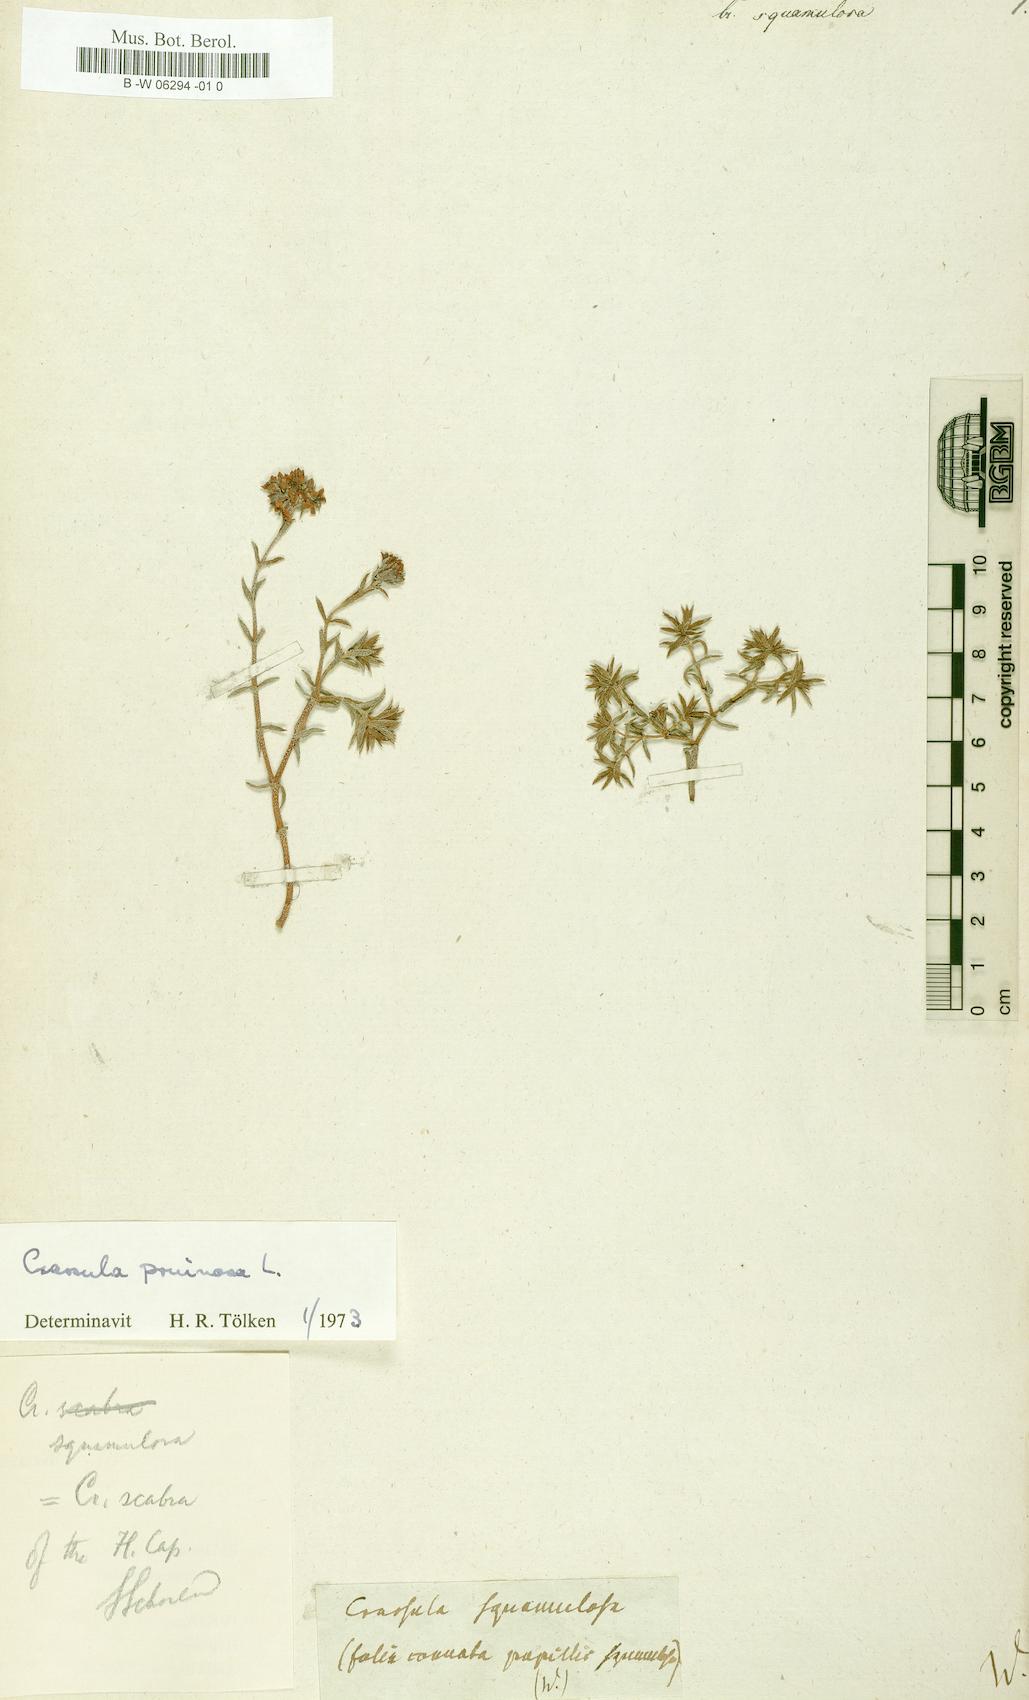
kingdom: Plantae
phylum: Tracheophyta
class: Magnoliopsida
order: Saxifragales
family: Crassulaceae
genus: Crassula
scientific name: Crassula
